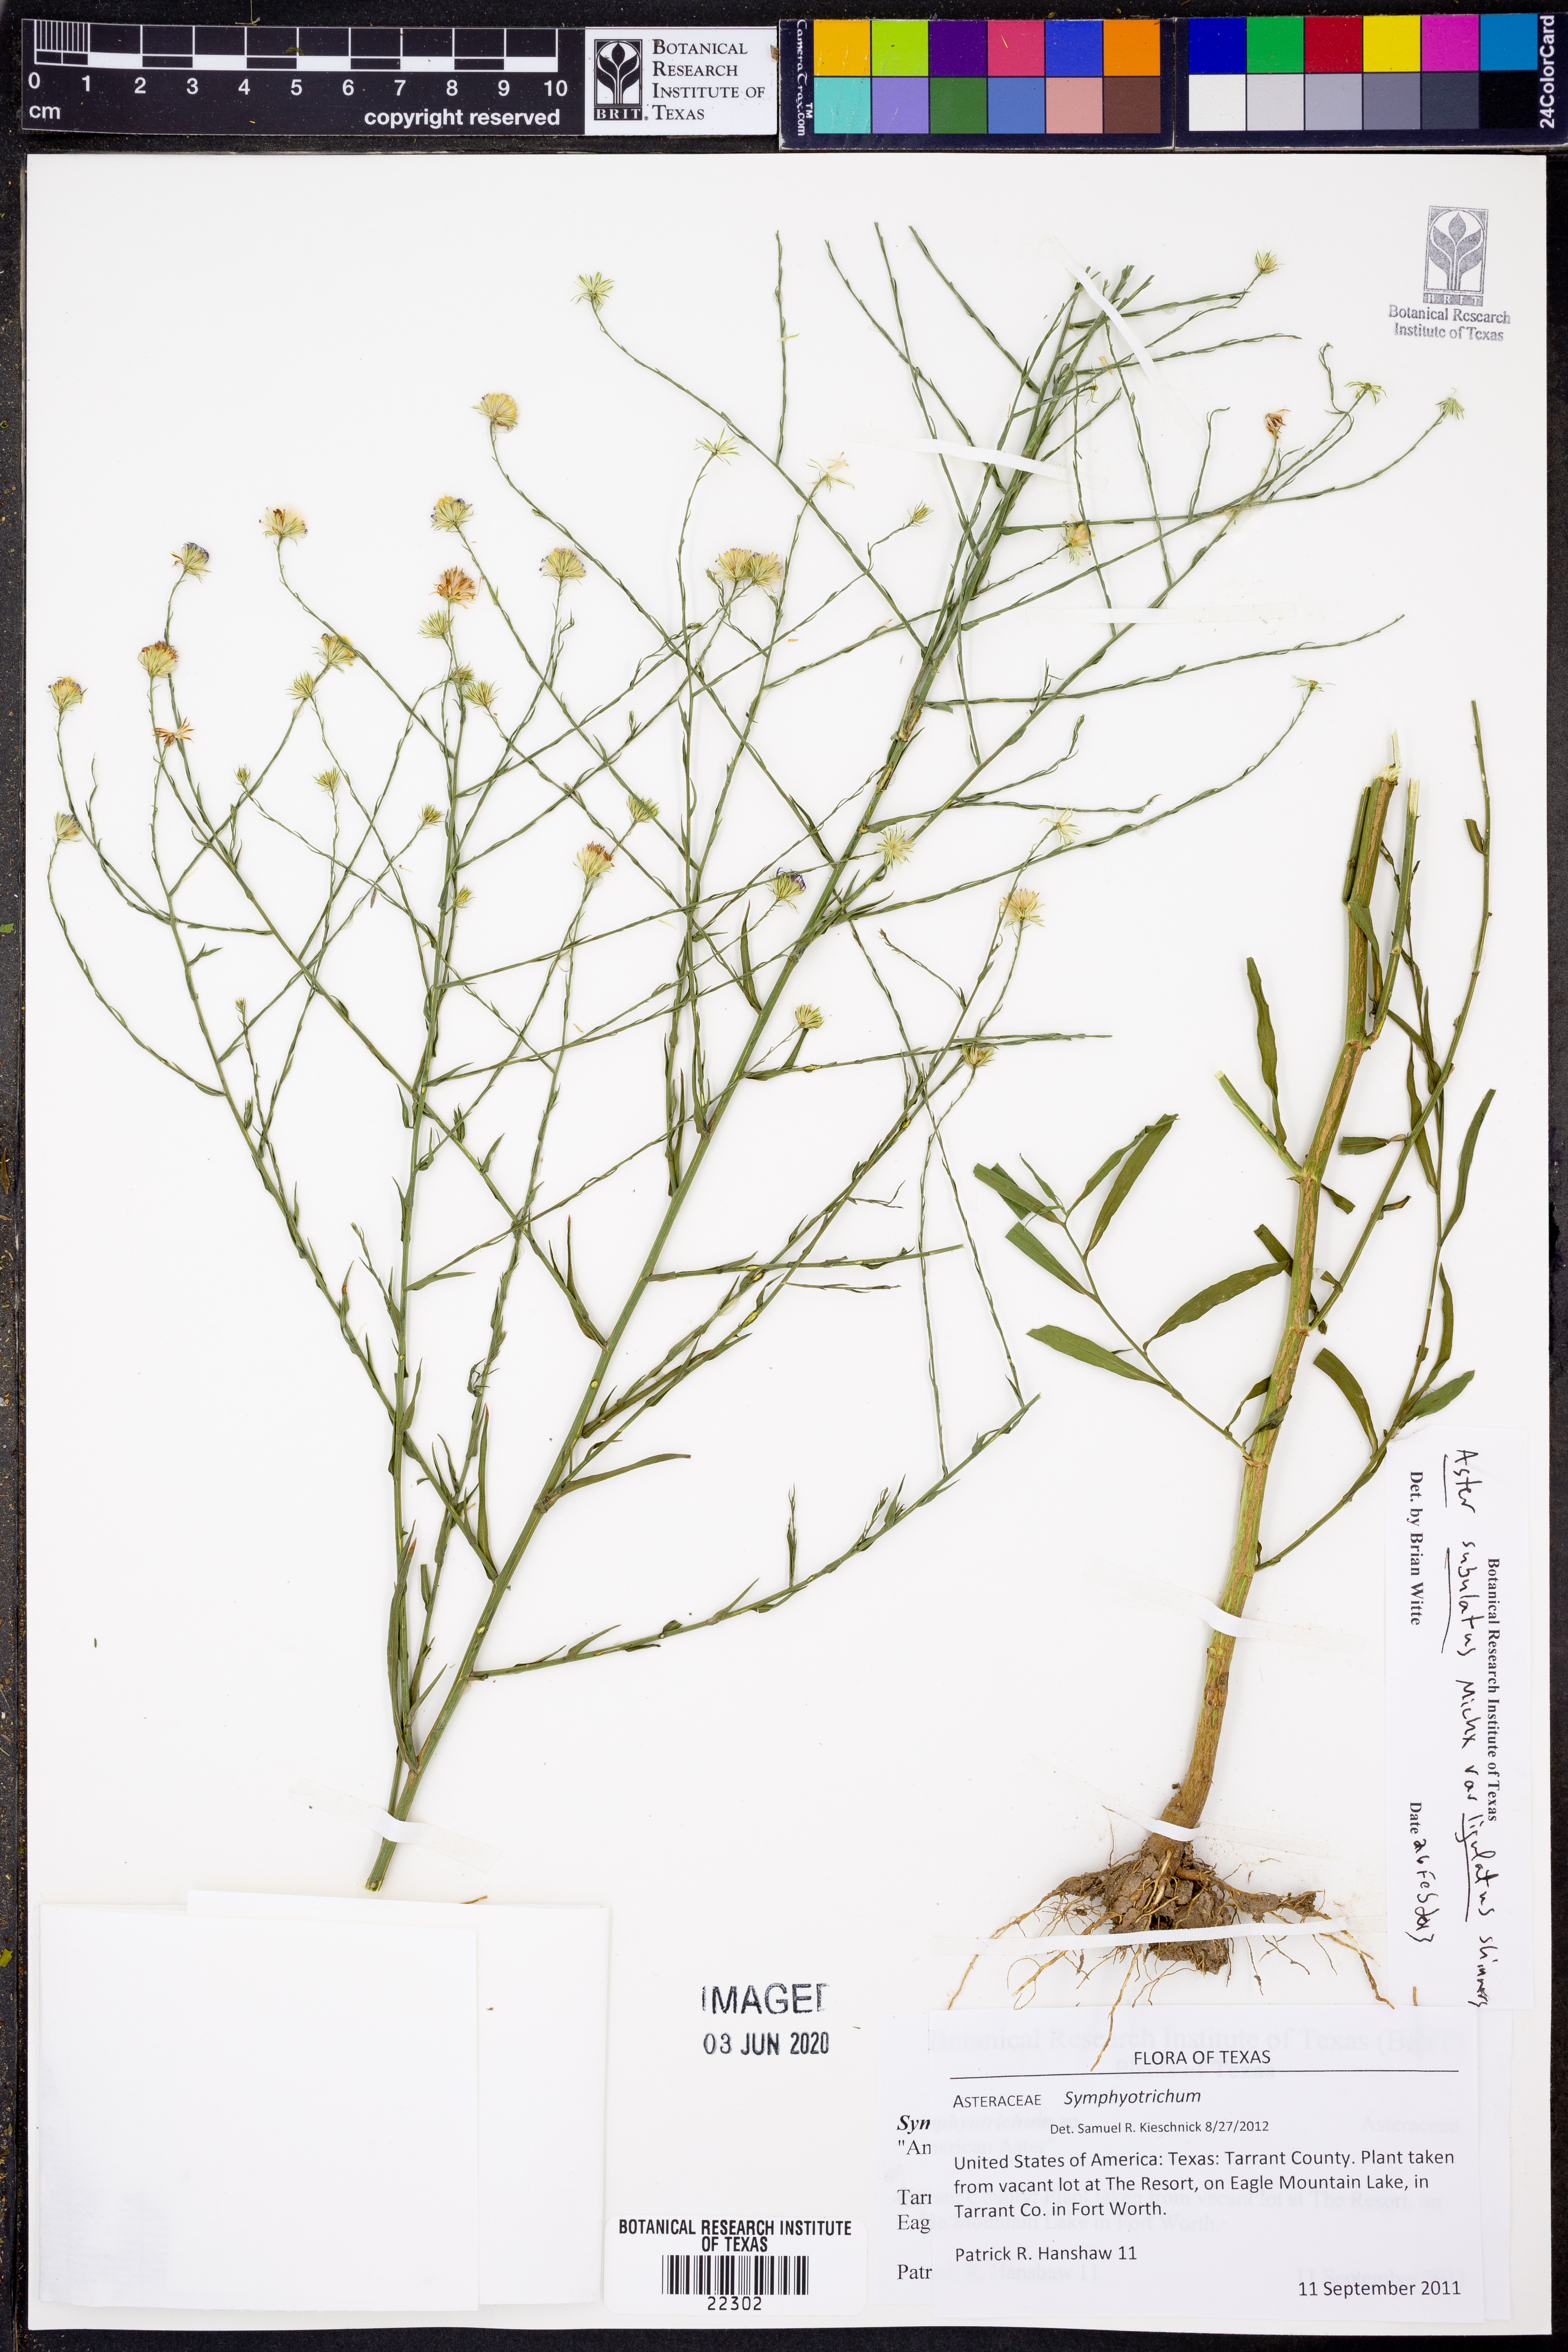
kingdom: Plantae
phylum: Tracheophyta
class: Magnoliopsida
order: Asterales
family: Asteraceae
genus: Symphyotrichum
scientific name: Symphyotrichum divaricatum
